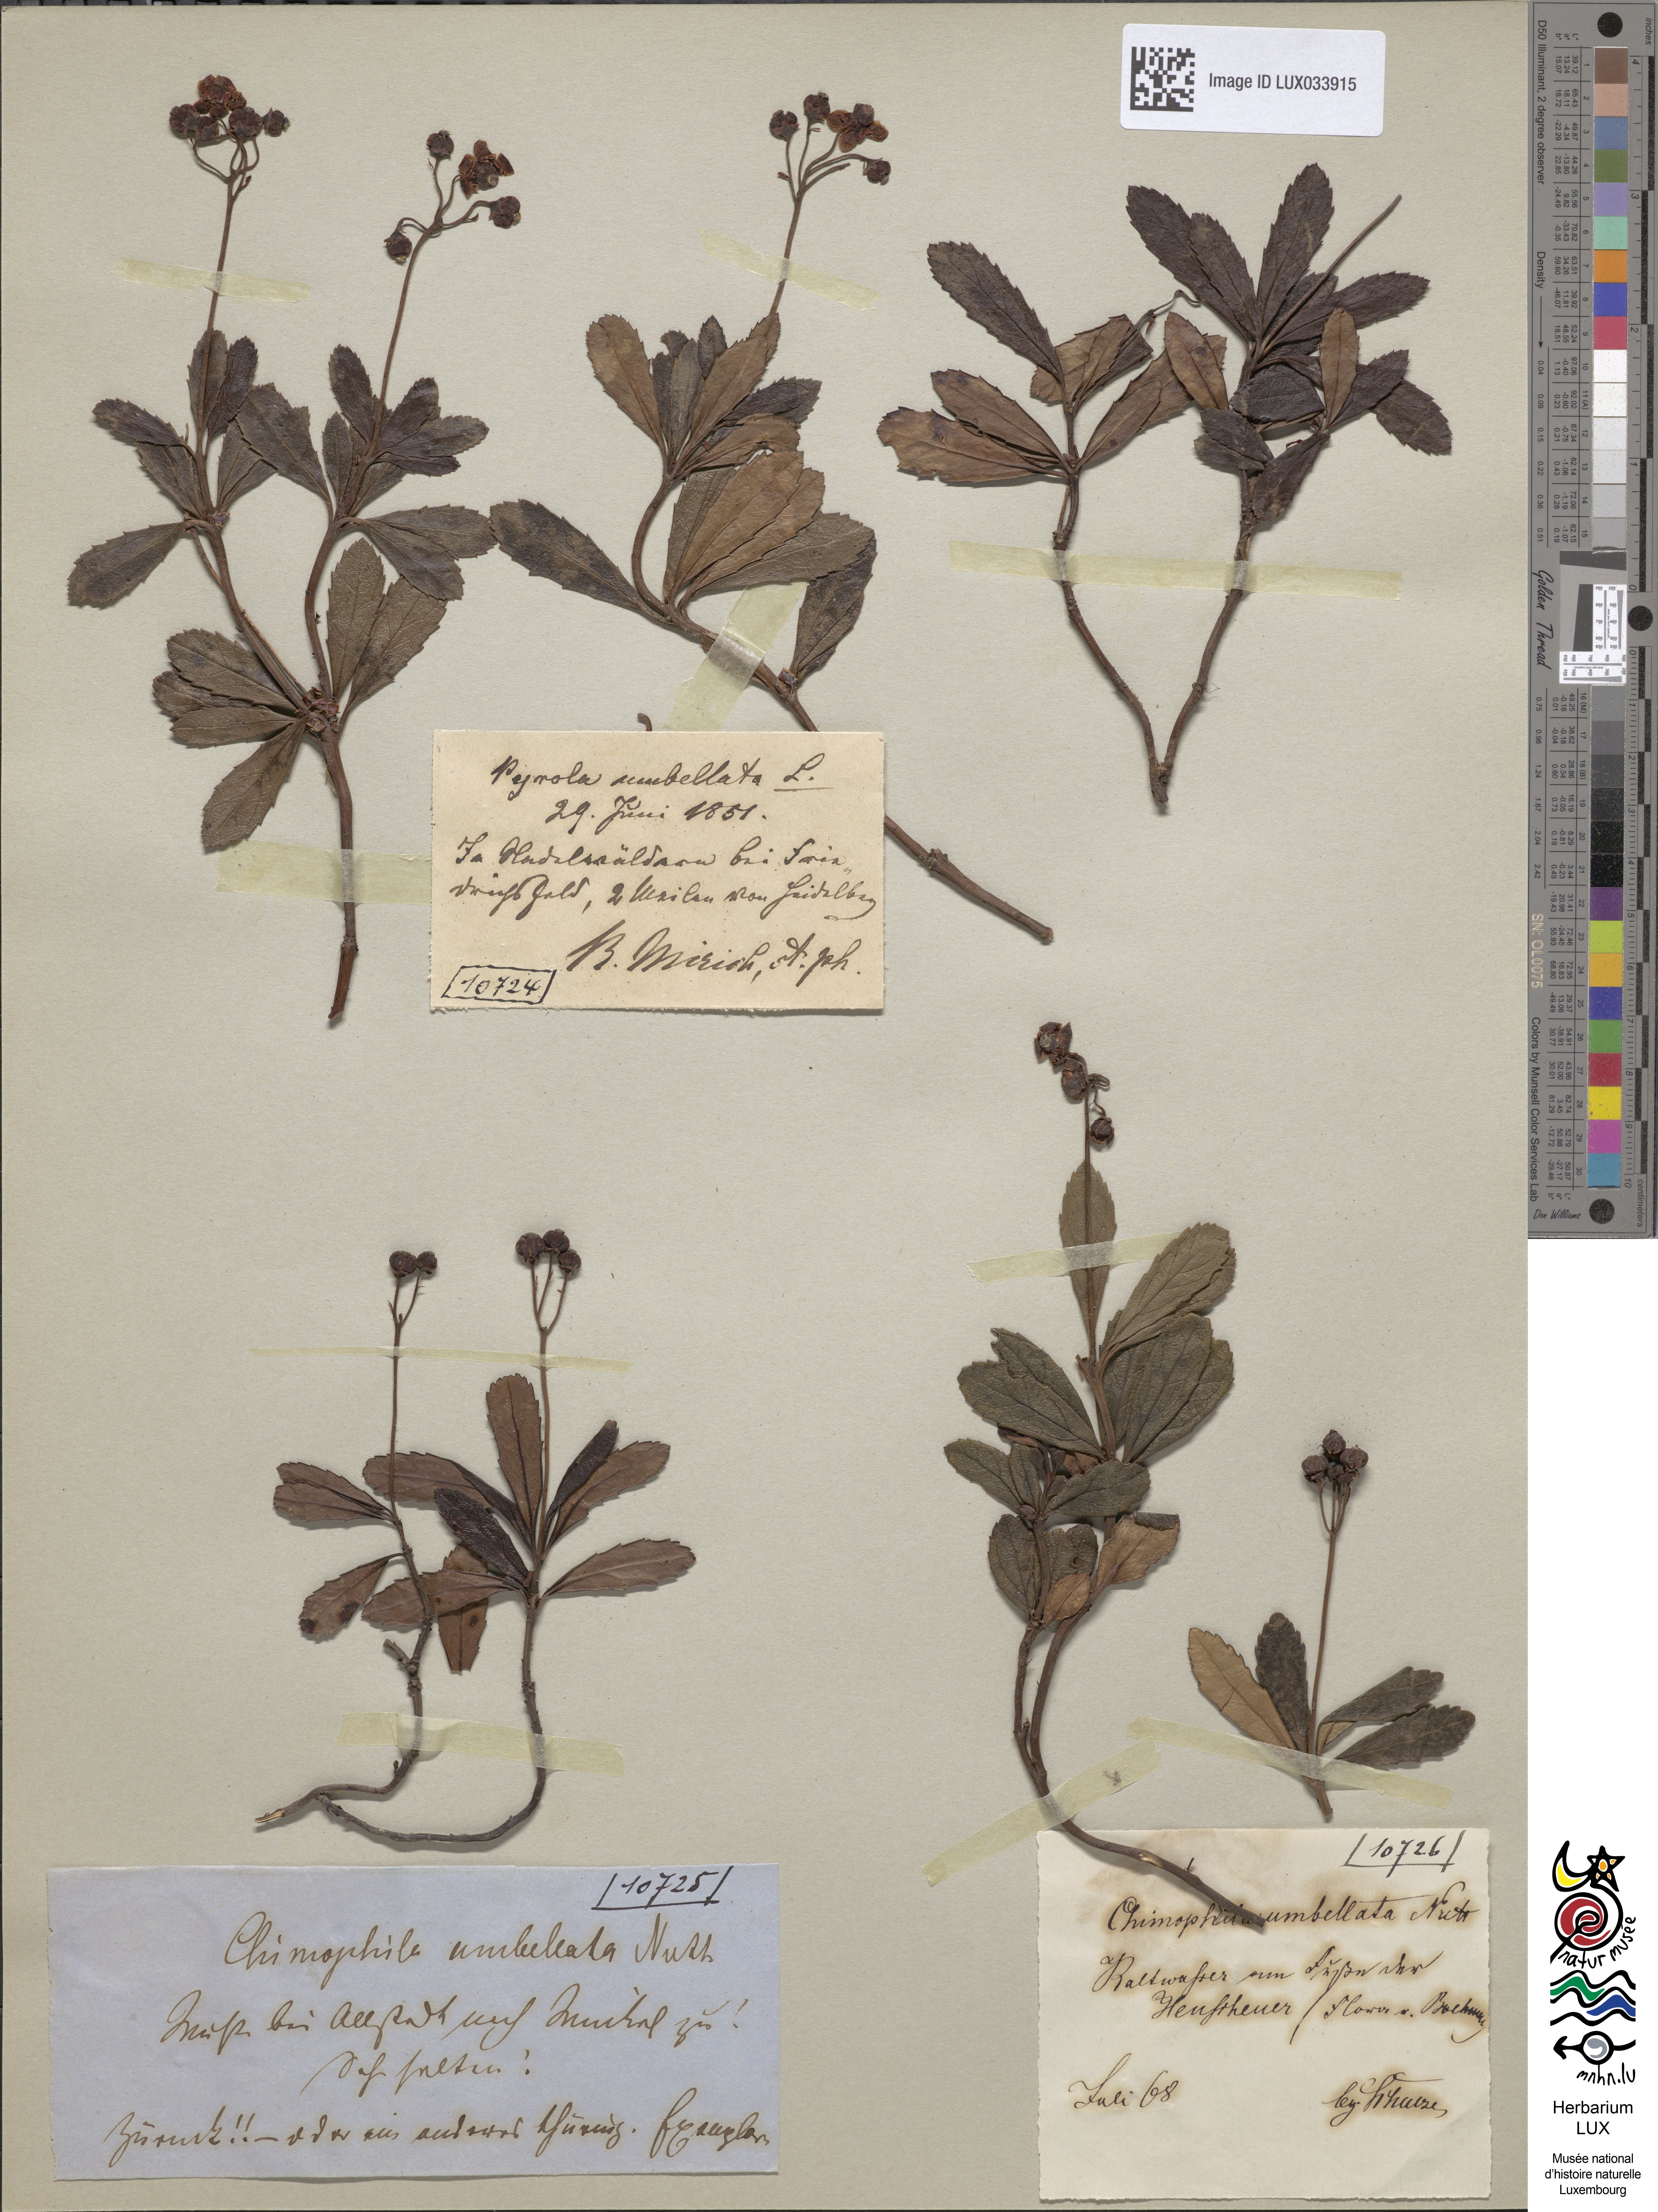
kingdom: Plantae
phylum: Tracheophyta
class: Magnoliopsida
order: Ericales
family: Ericaceae
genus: Chimaphila
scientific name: Chimaphila umbellata
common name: Pipsissewa
